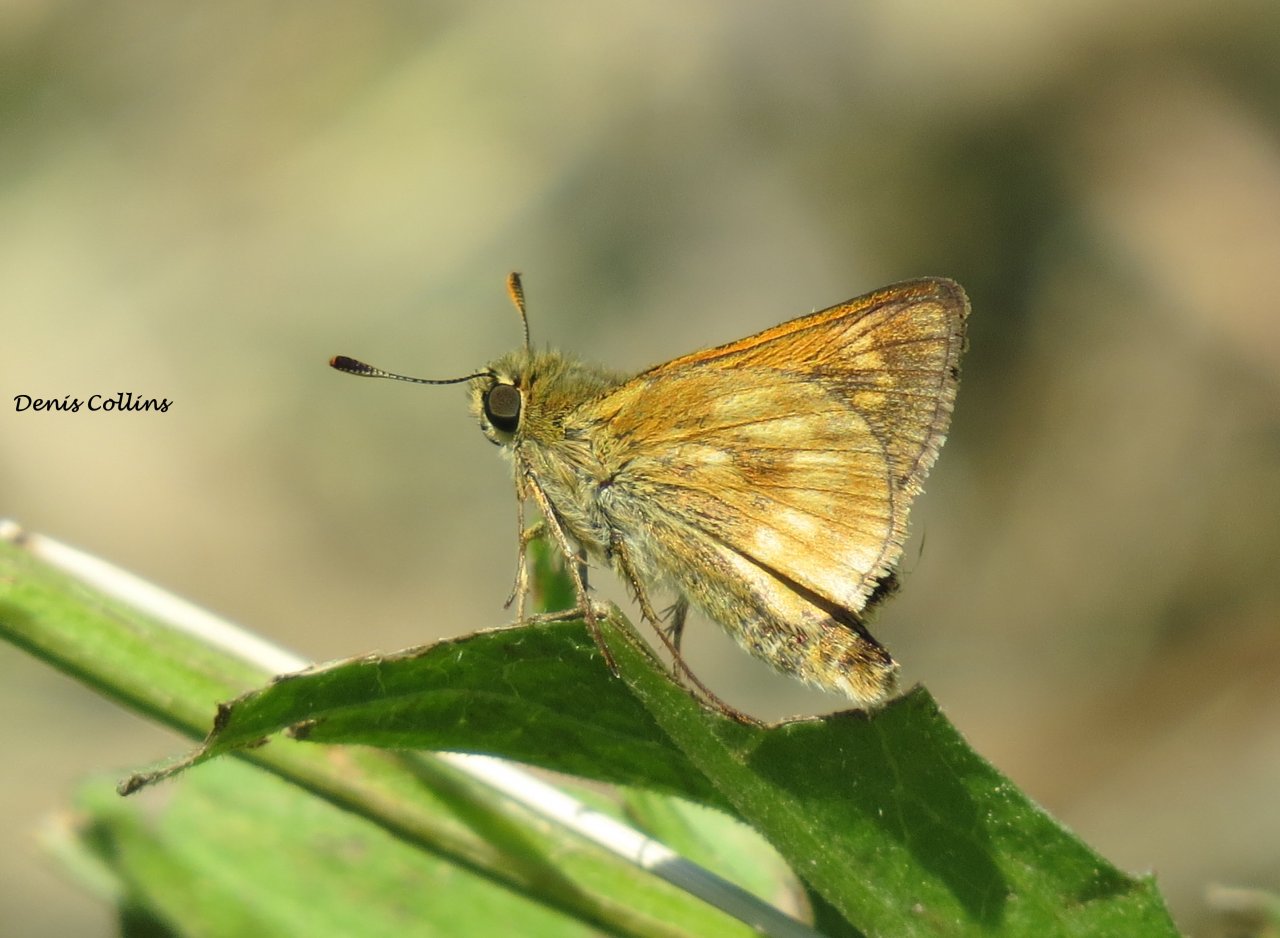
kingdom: Animalia
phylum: Arthropoda
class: Insecta
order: Lepidoptera
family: Hesperiidae
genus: Polites
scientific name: Polites
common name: Long Dash Skipper
